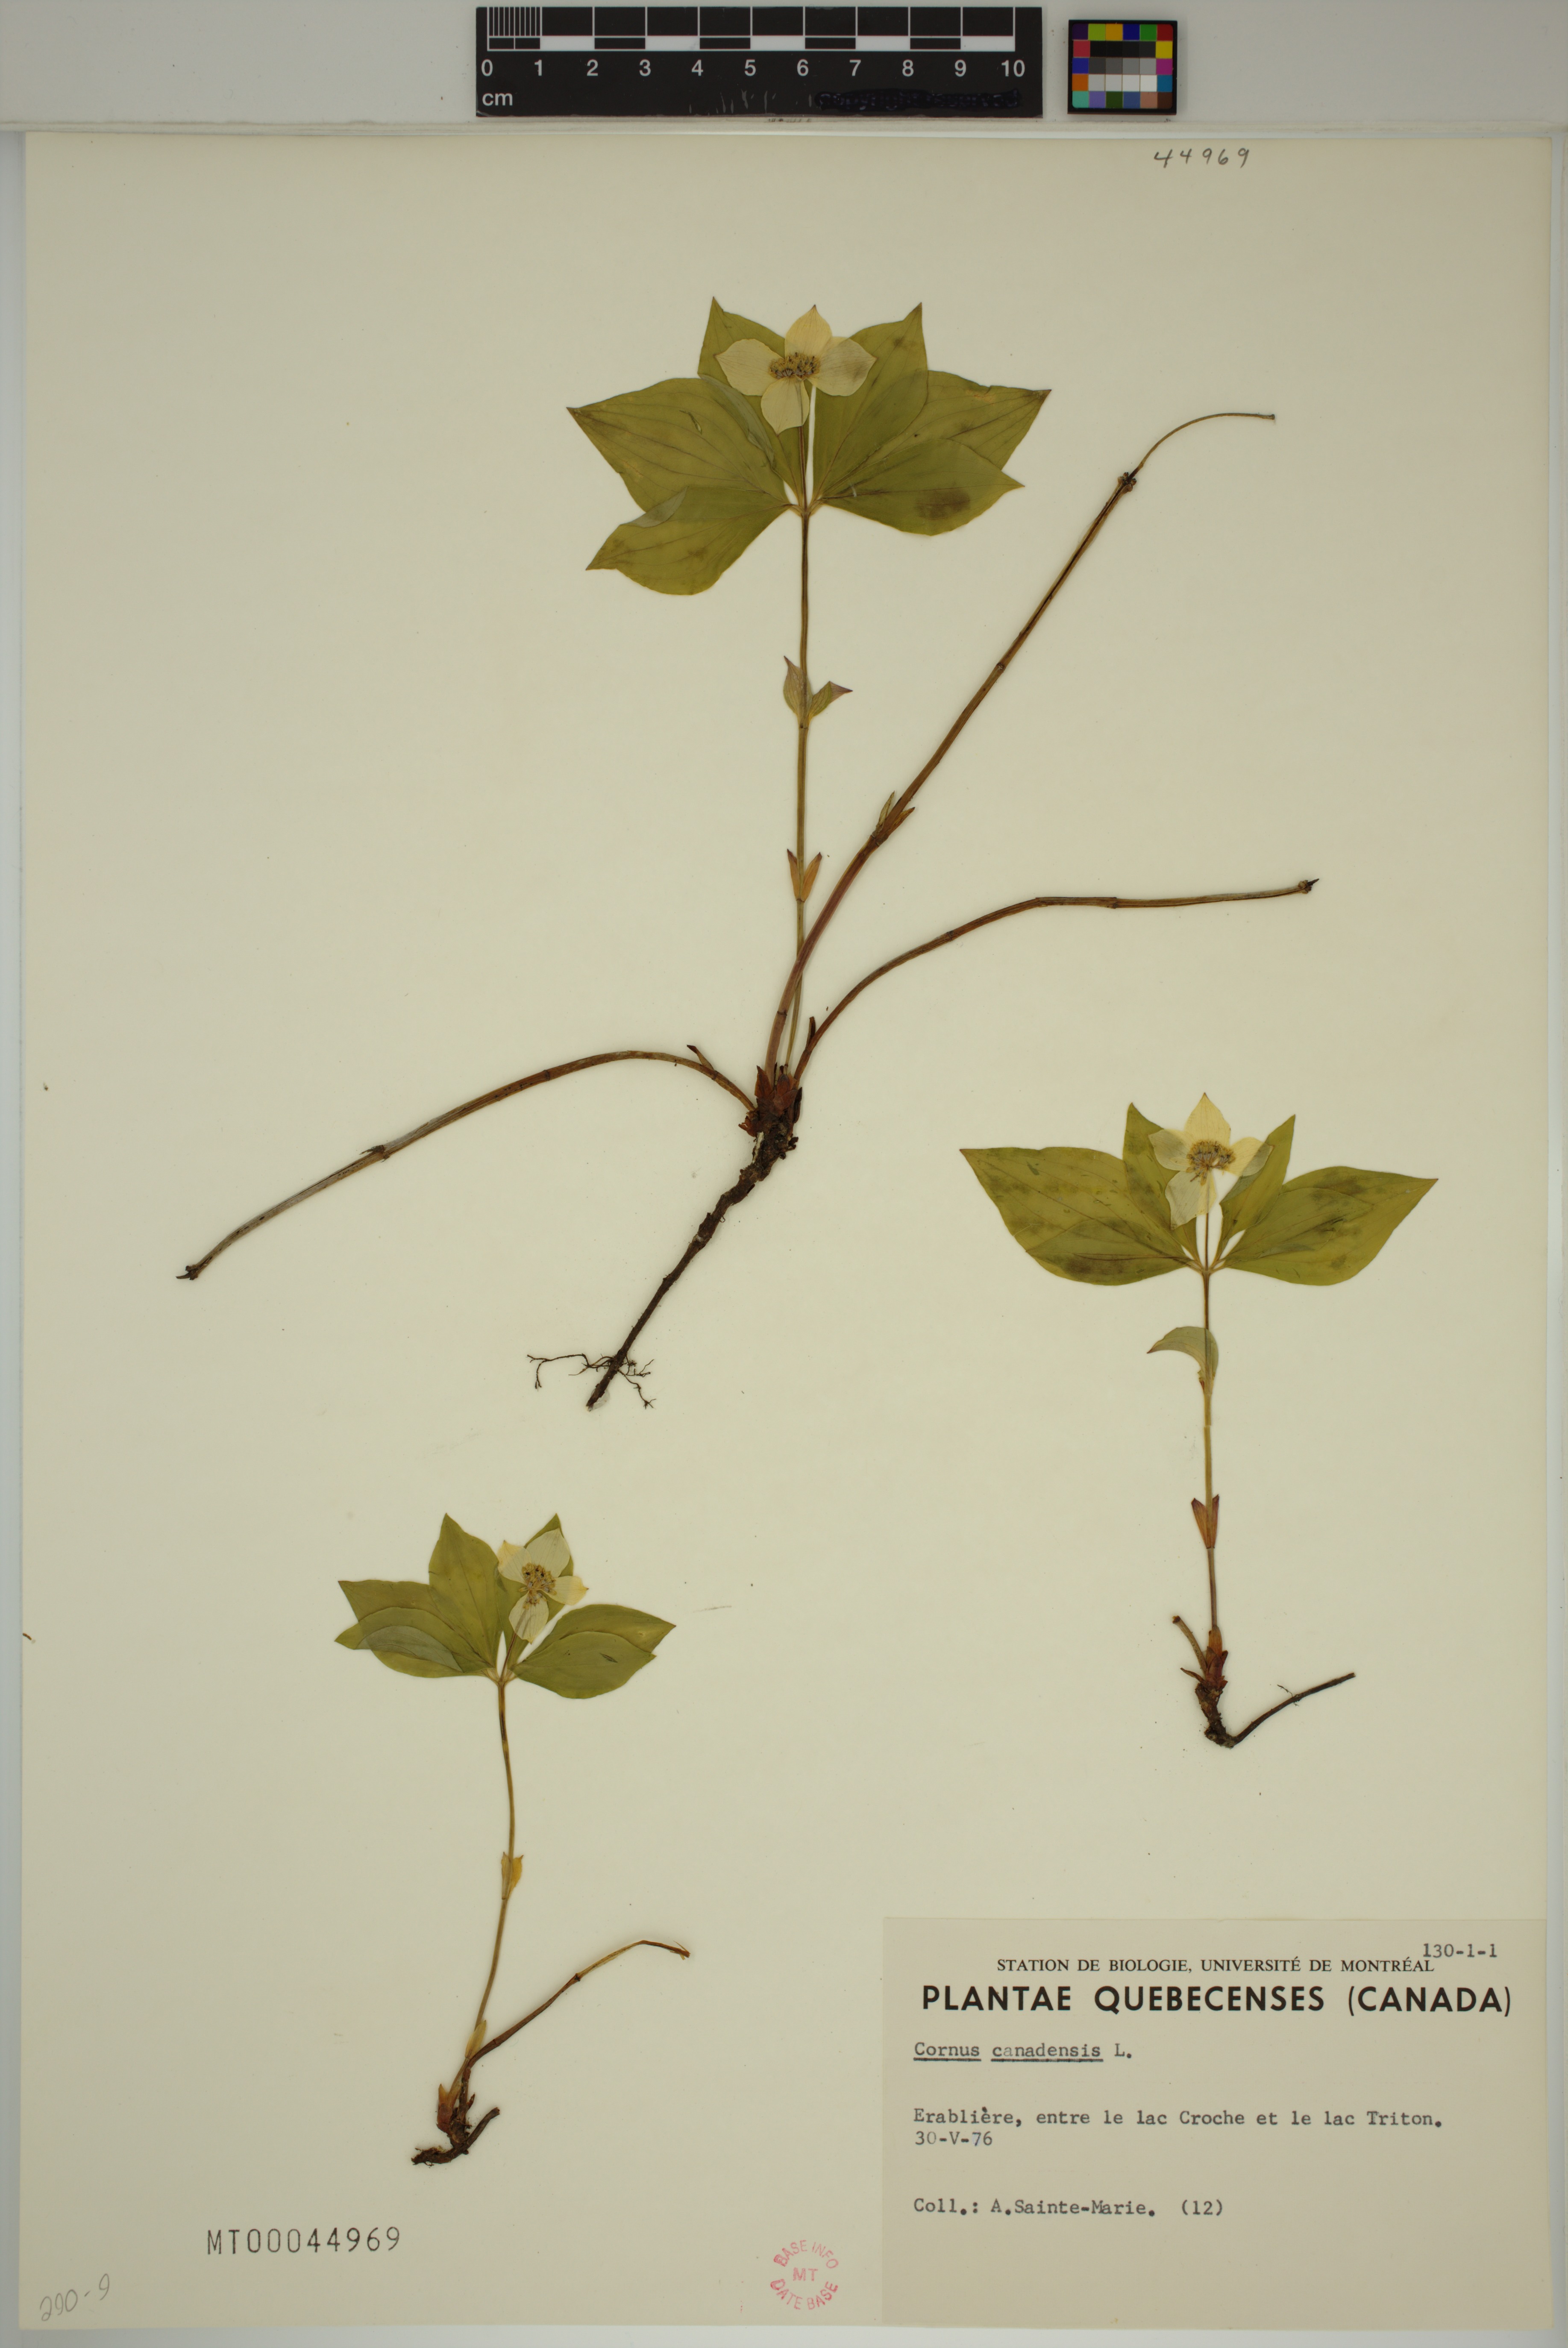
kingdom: Plantae
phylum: Tracheophyta
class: Magnoliopsida
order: Cornales
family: Cornaceae
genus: Cornus
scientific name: Cornus canadensis
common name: Creeping dogwood
